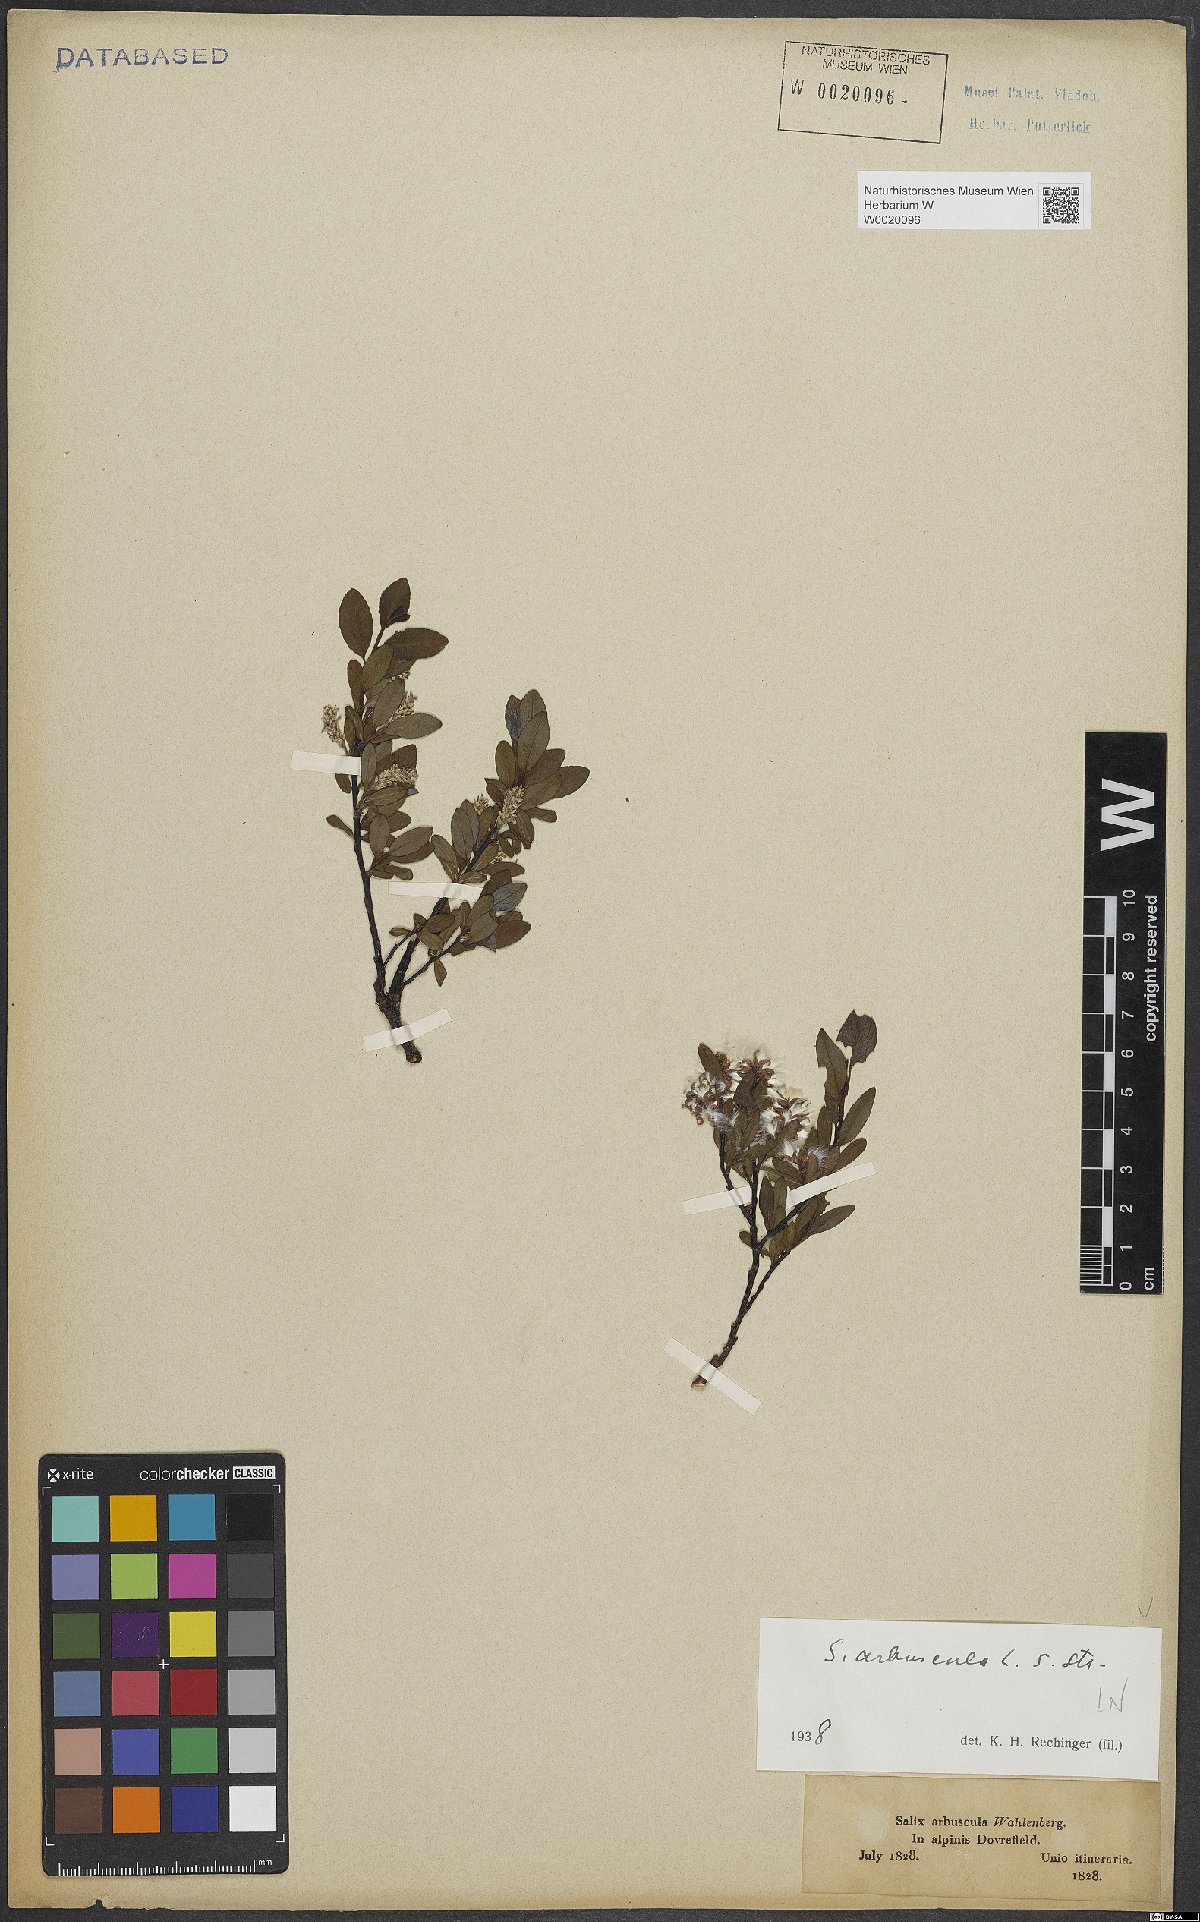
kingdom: Plantae
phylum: Tracheophyta
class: Magnoliopsida
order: Malpighiales
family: Salicaceae
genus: Salix
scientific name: Salix arbuscula
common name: Mountain willow
